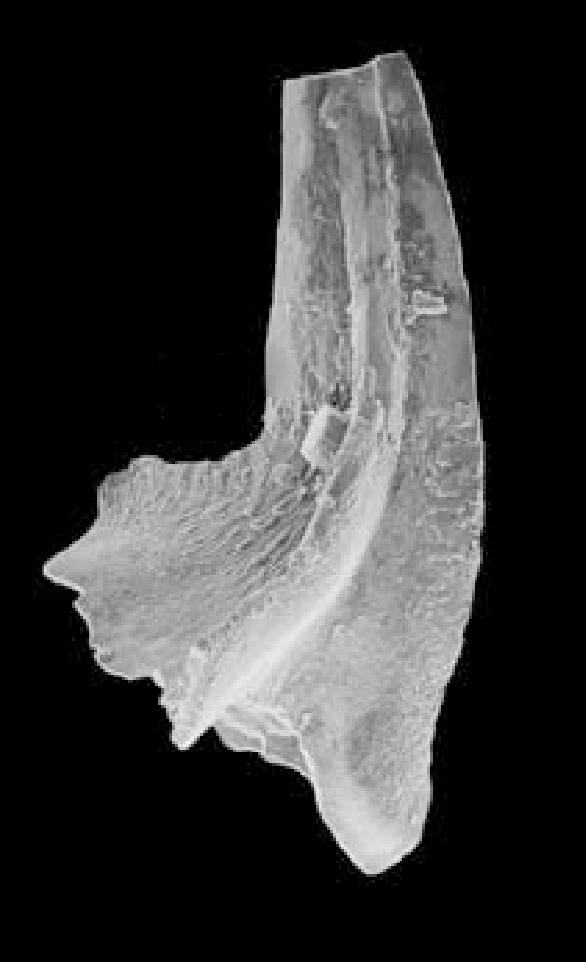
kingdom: Animalia
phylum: Chordata
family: Balognathidae
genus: Prioniodus
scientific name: Prioniodus
